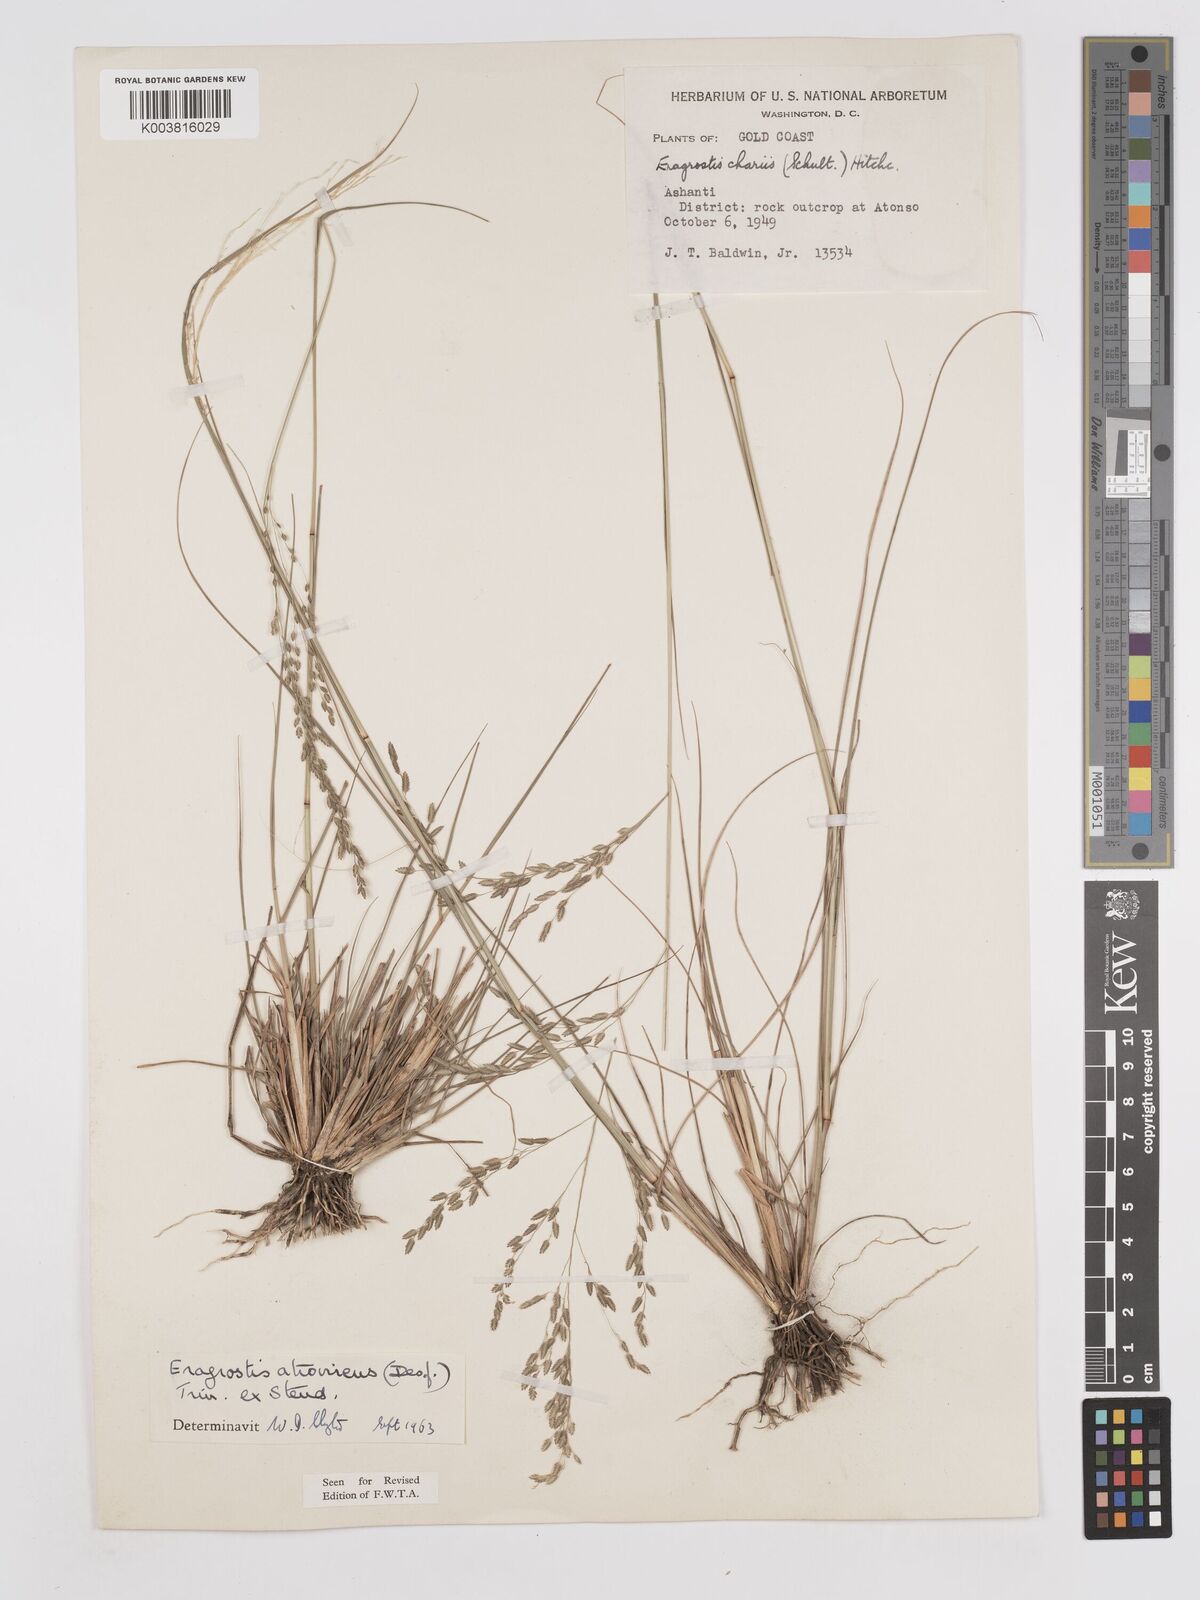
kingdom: Plantae
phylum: Tracheophyta
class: Liliopsida
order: Poales
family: Poaceae
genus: Eragrostis
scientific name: Eragrostis atrovirens
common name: Thalia lovegrass
